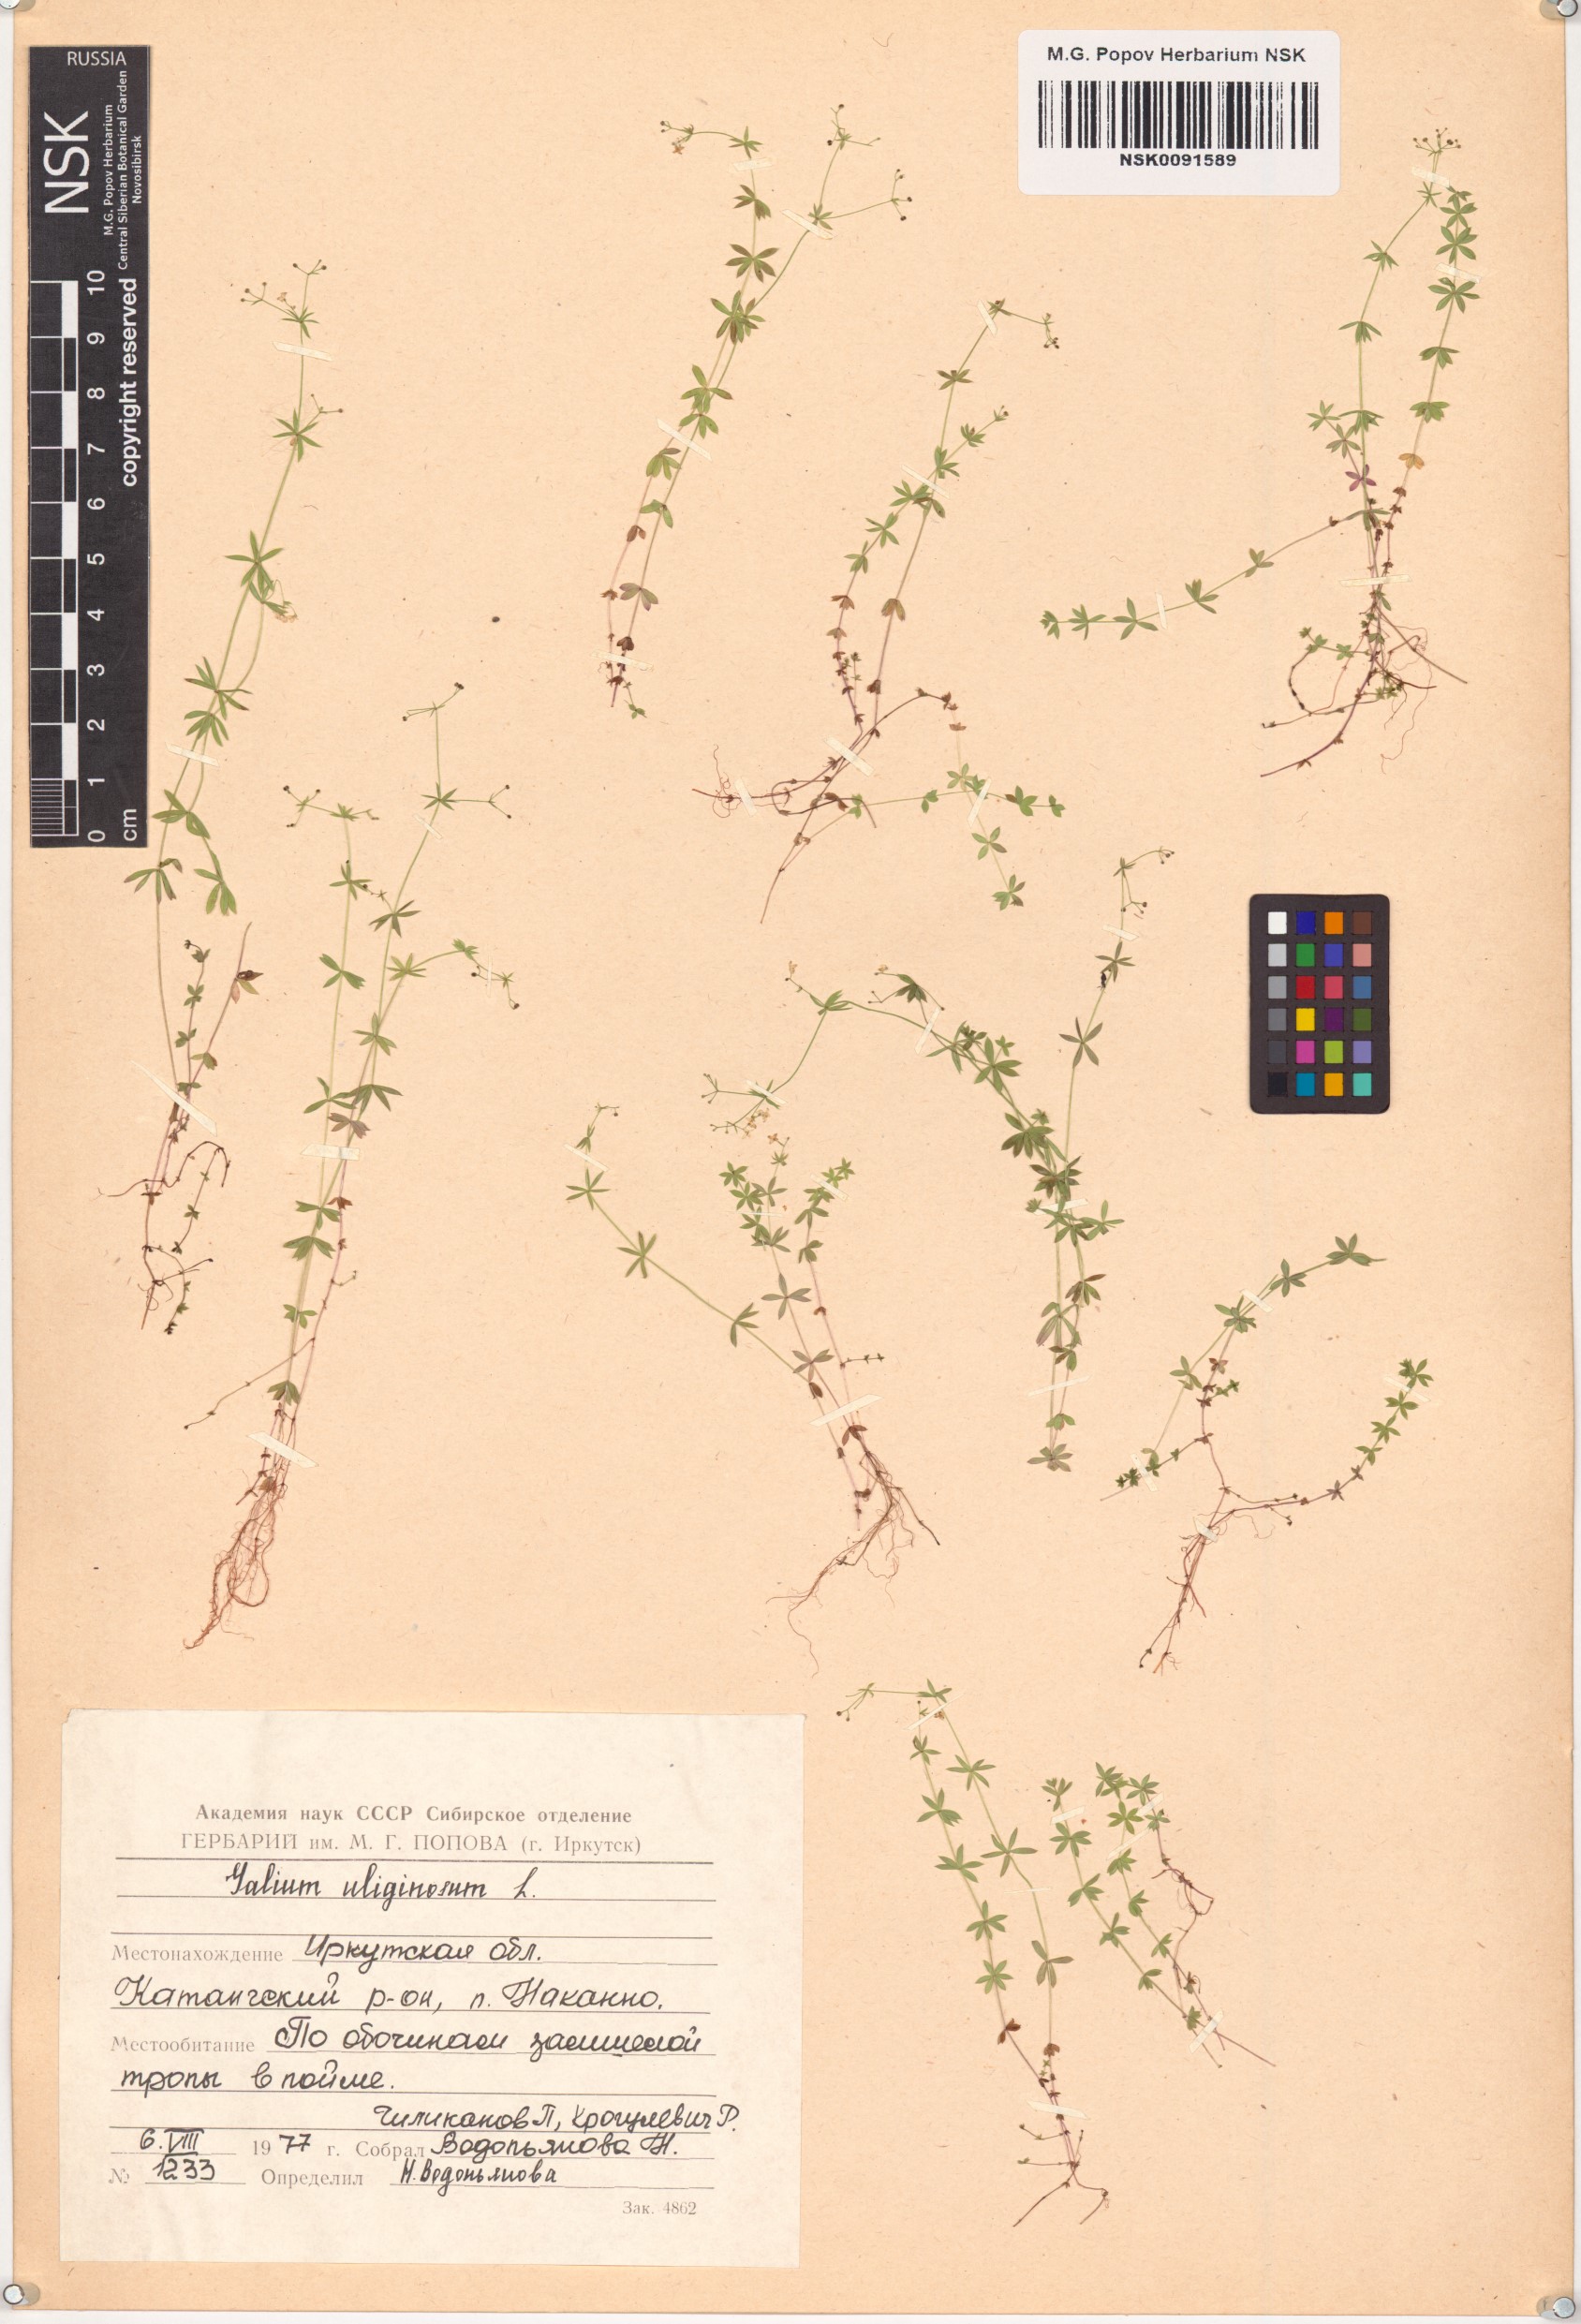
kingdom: Plantae
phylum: Tracheophyta
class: Magnoliopsida
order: Gentianales
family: Rubiaceae
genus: Galium
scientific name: Galium uliginosum
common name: Fen bedstraw
